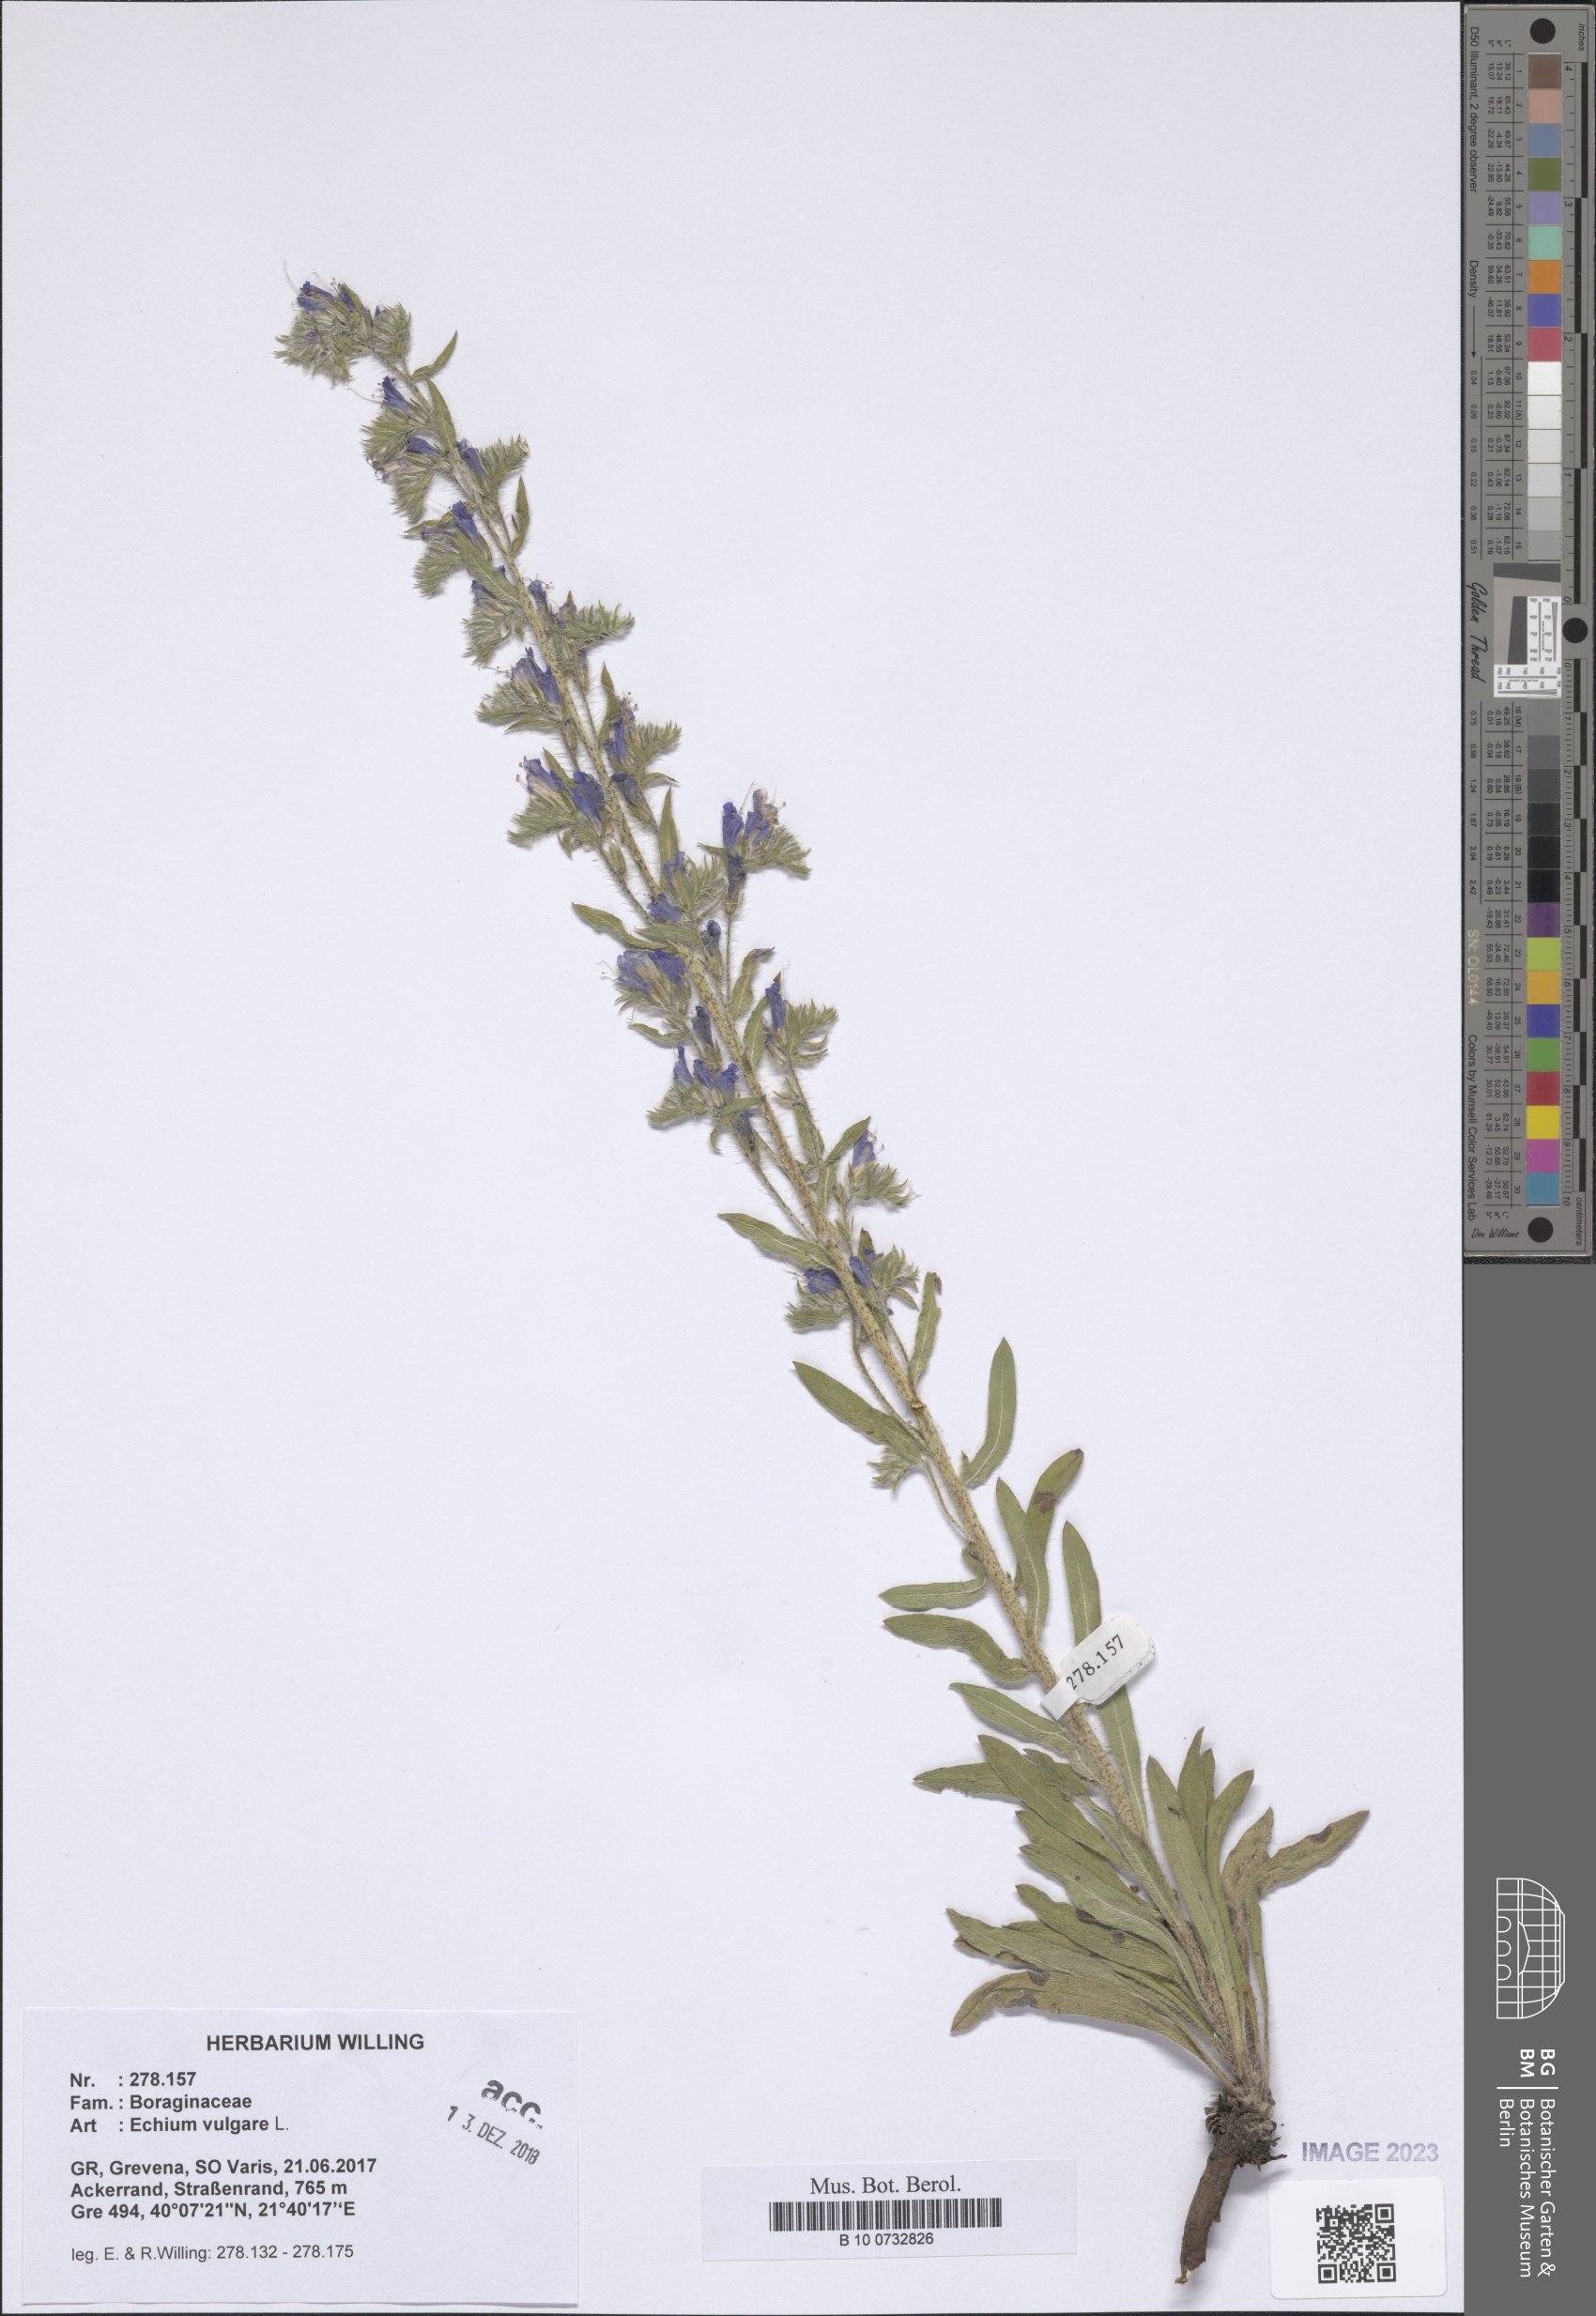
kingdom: Plantae
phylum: Tracheophyta
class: Magnoliopsida
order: Boraginales
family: Boraginaceae
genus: Echium
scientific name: Echium vulgare
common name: Common viper's bugloss
